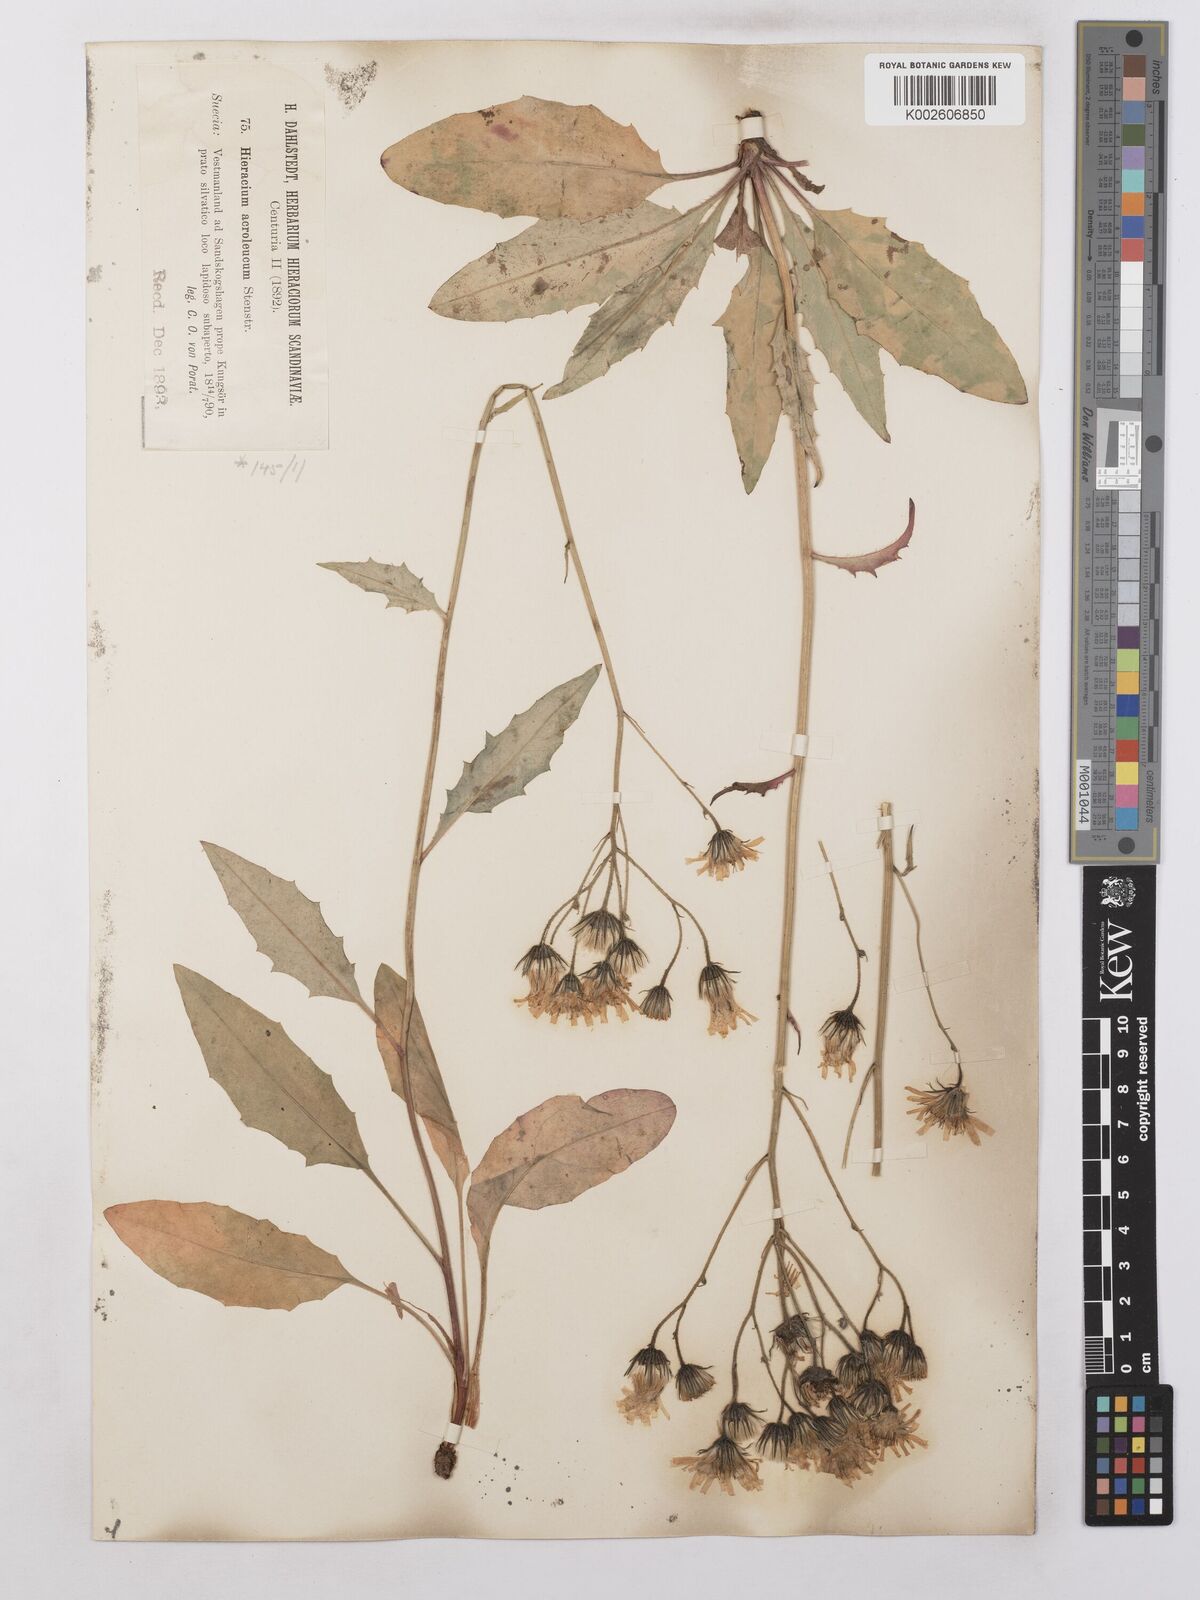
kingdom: Plantae
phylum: Tracheophyta
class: Magnoliopsida
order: Asterales
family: Asteraceae
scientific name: Asteraceae
